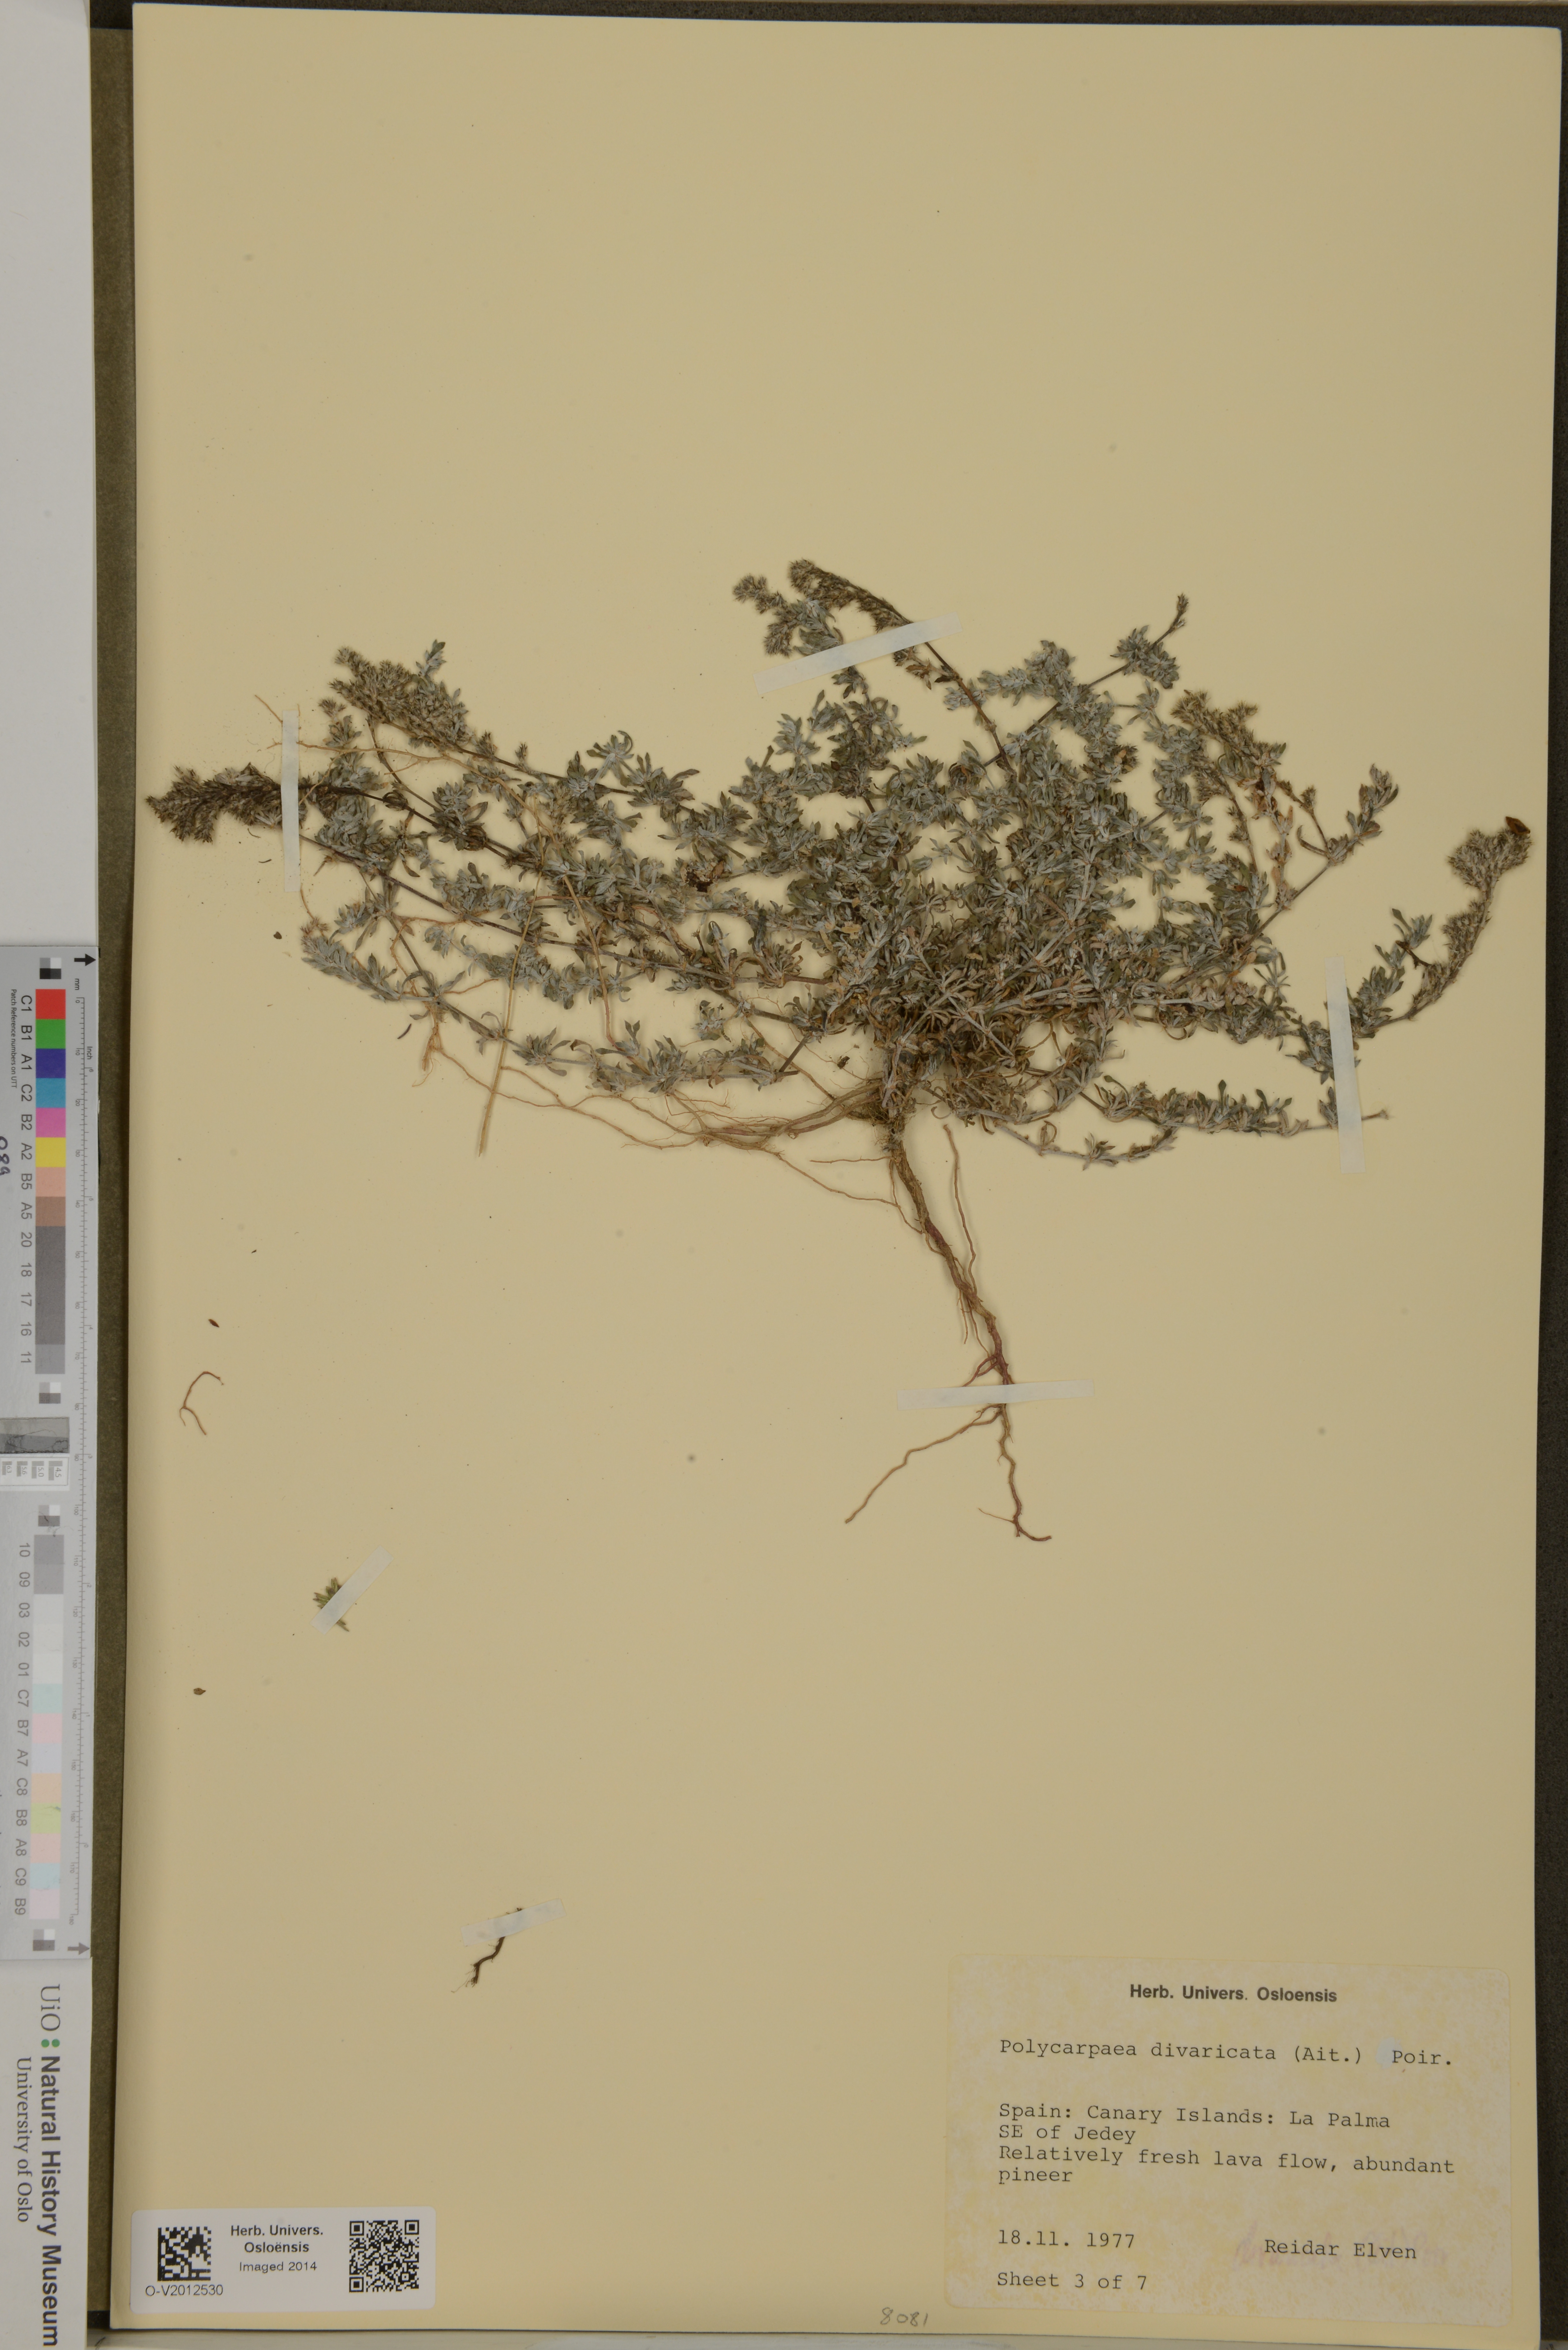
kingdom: Plantae
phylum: Tracheophyta
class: Magnoliopsida
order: Caryophyllales
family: Caryophyllaceae
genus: Polycarpaea
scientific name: Polycarpaea divaricata
